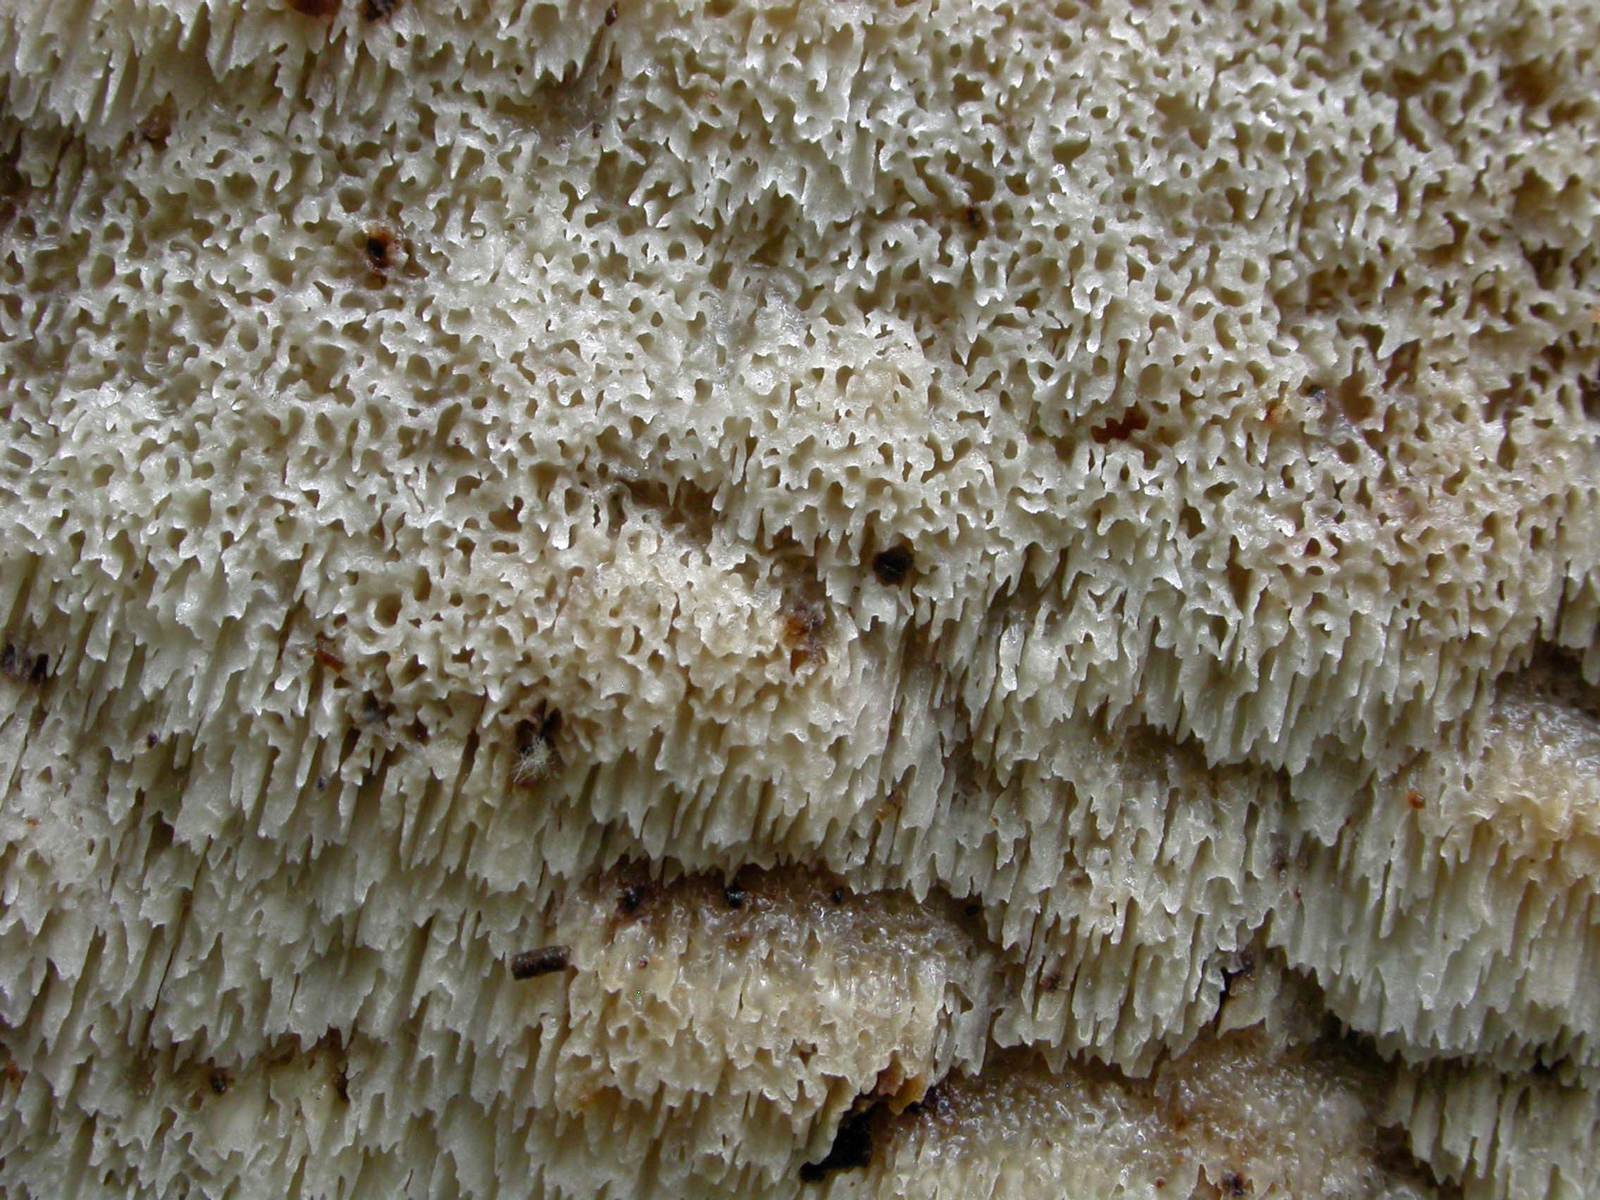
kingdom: Fungi
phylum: Basidiomycota
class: Agaricomycetes
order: Polyporales
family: Meruliaceae
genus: Physisporinus
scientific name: Physisporinus vitreus
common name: mastesvamp
